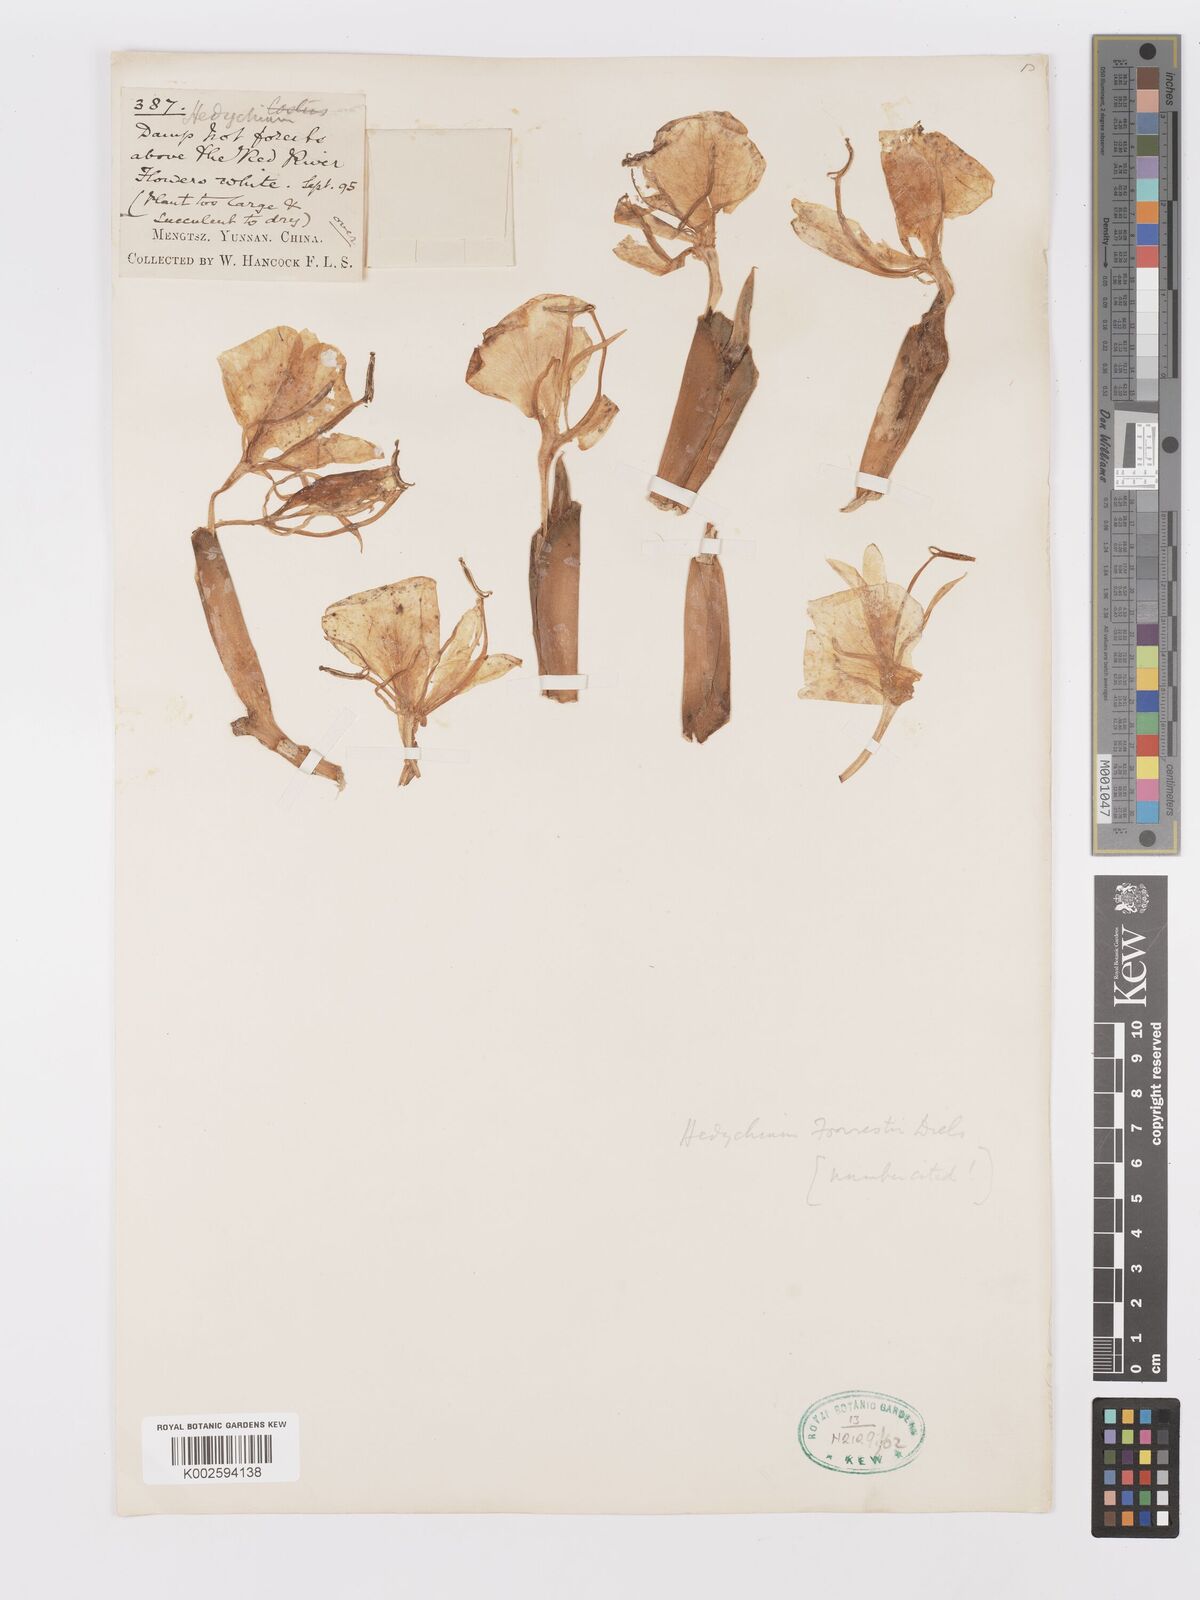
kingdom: Plantae
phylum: Tracheophyta
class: Liliopsida
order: Zingiberales
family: Zingiberaceae
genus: Hedychium
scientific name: Hedychium forrestii
